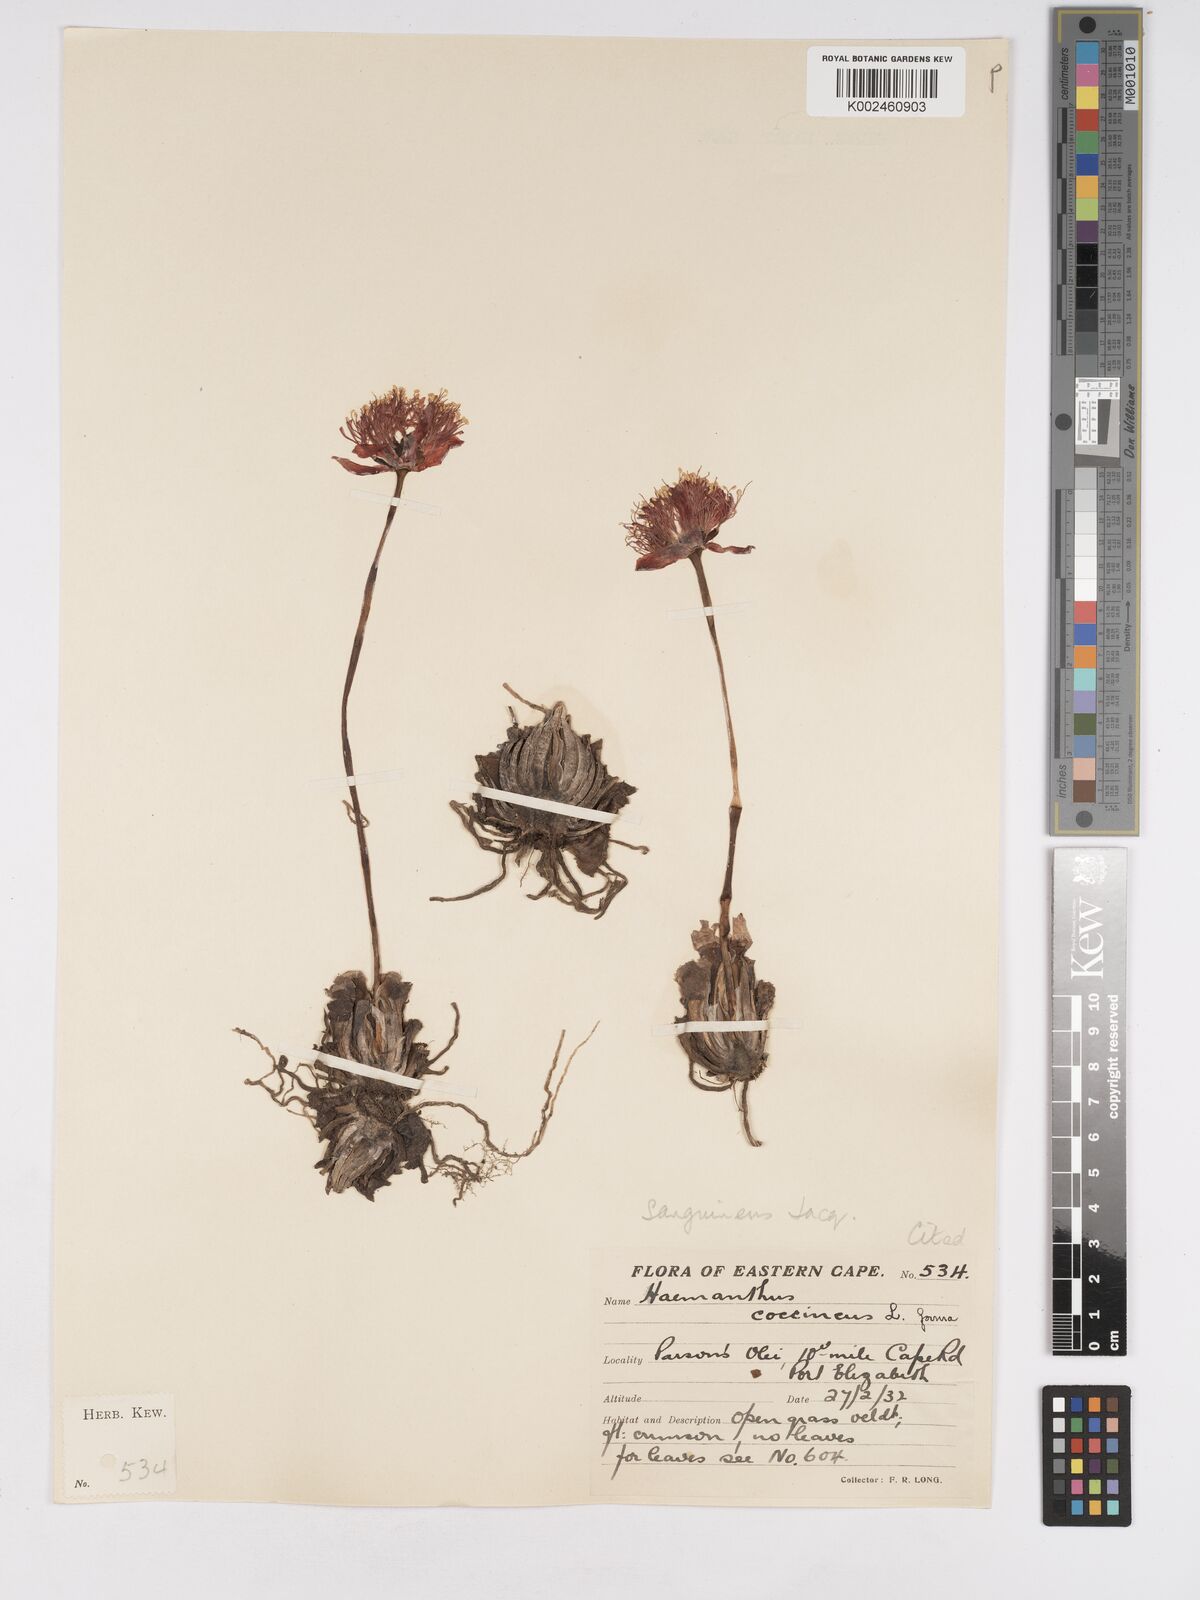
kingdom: Plantae
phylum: Tracheophyta
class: Liliopsida
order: Asparagales
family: Amaryllidaceae
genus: Haemanthus
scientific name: Haemanthus sanguineus
